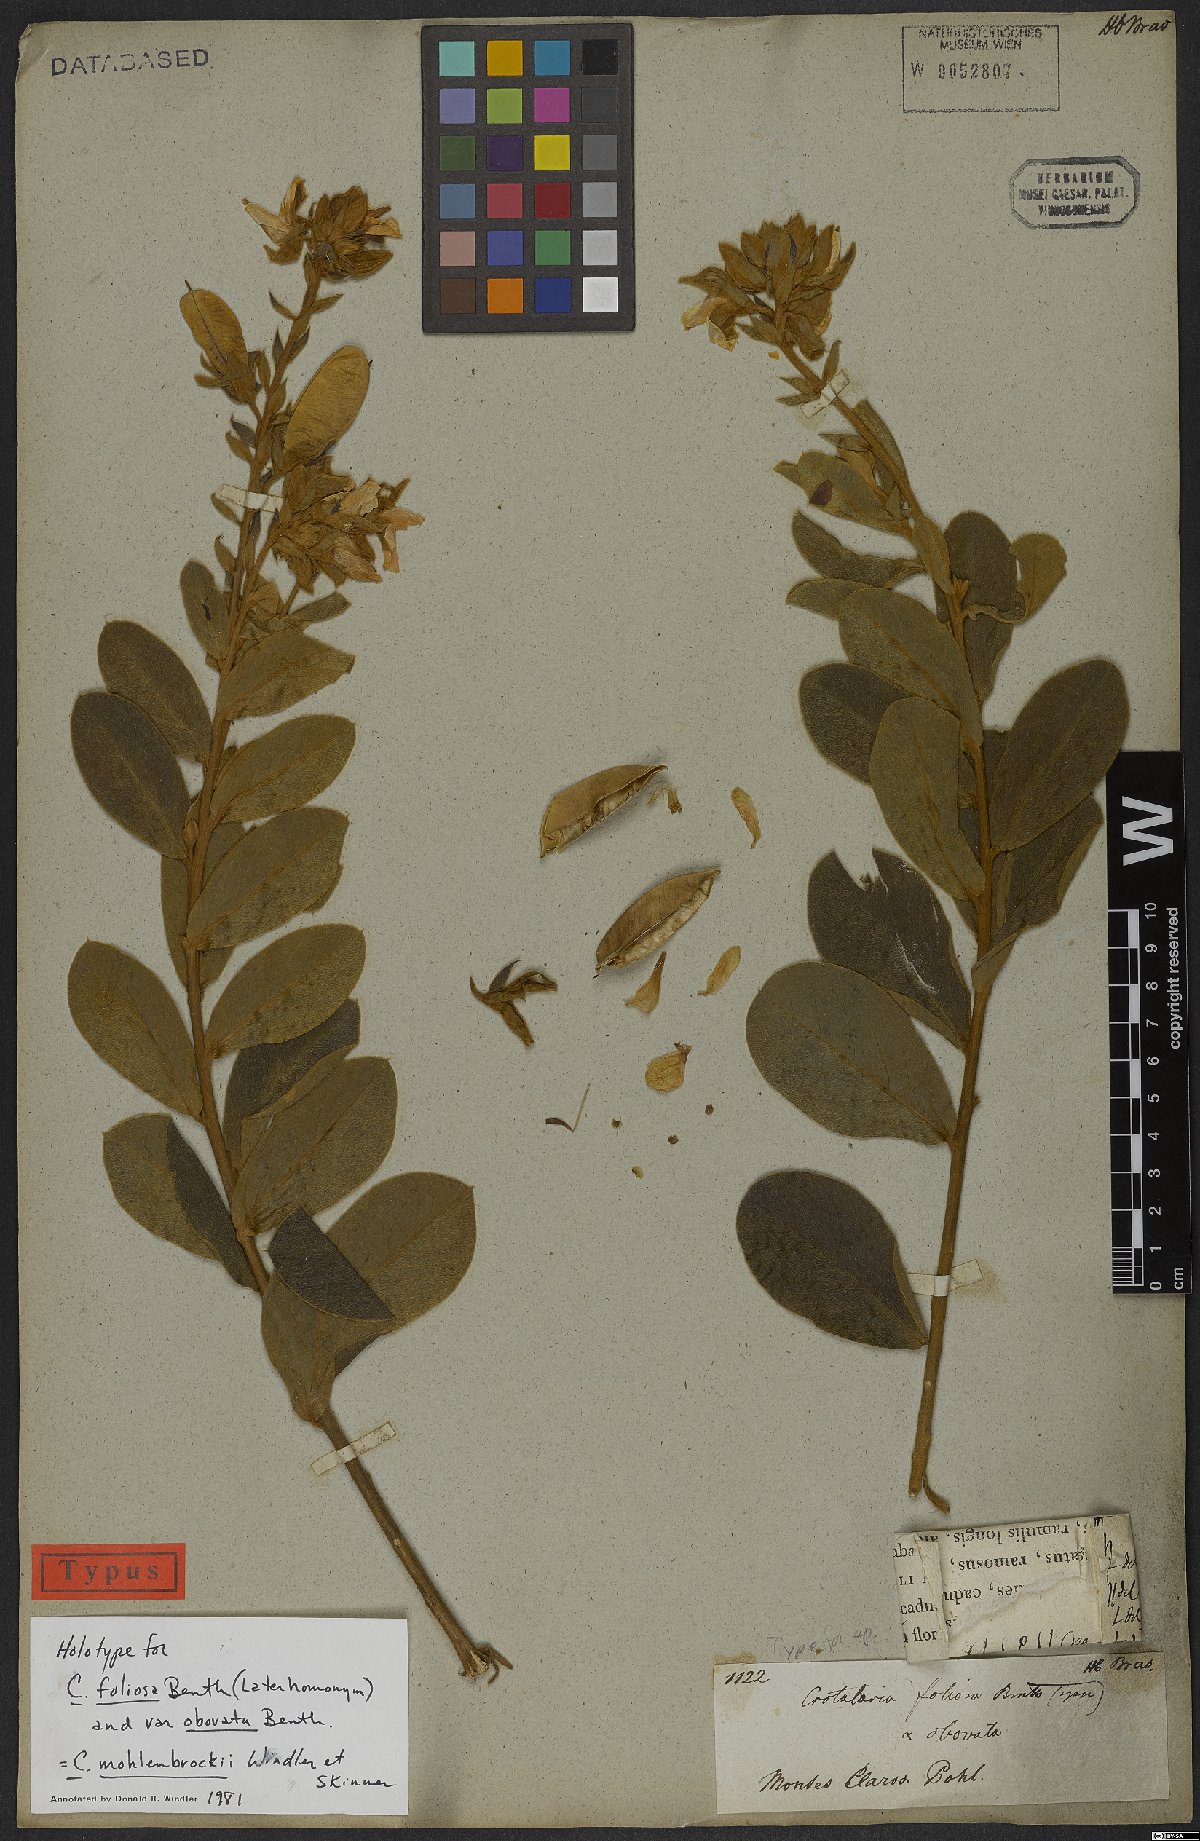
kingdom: Plantae
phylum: Tracheophyta
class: Magnoliopsida
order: Fabales
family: Fabaceae
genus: Crotalaria
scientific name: Crotalaria martiana
